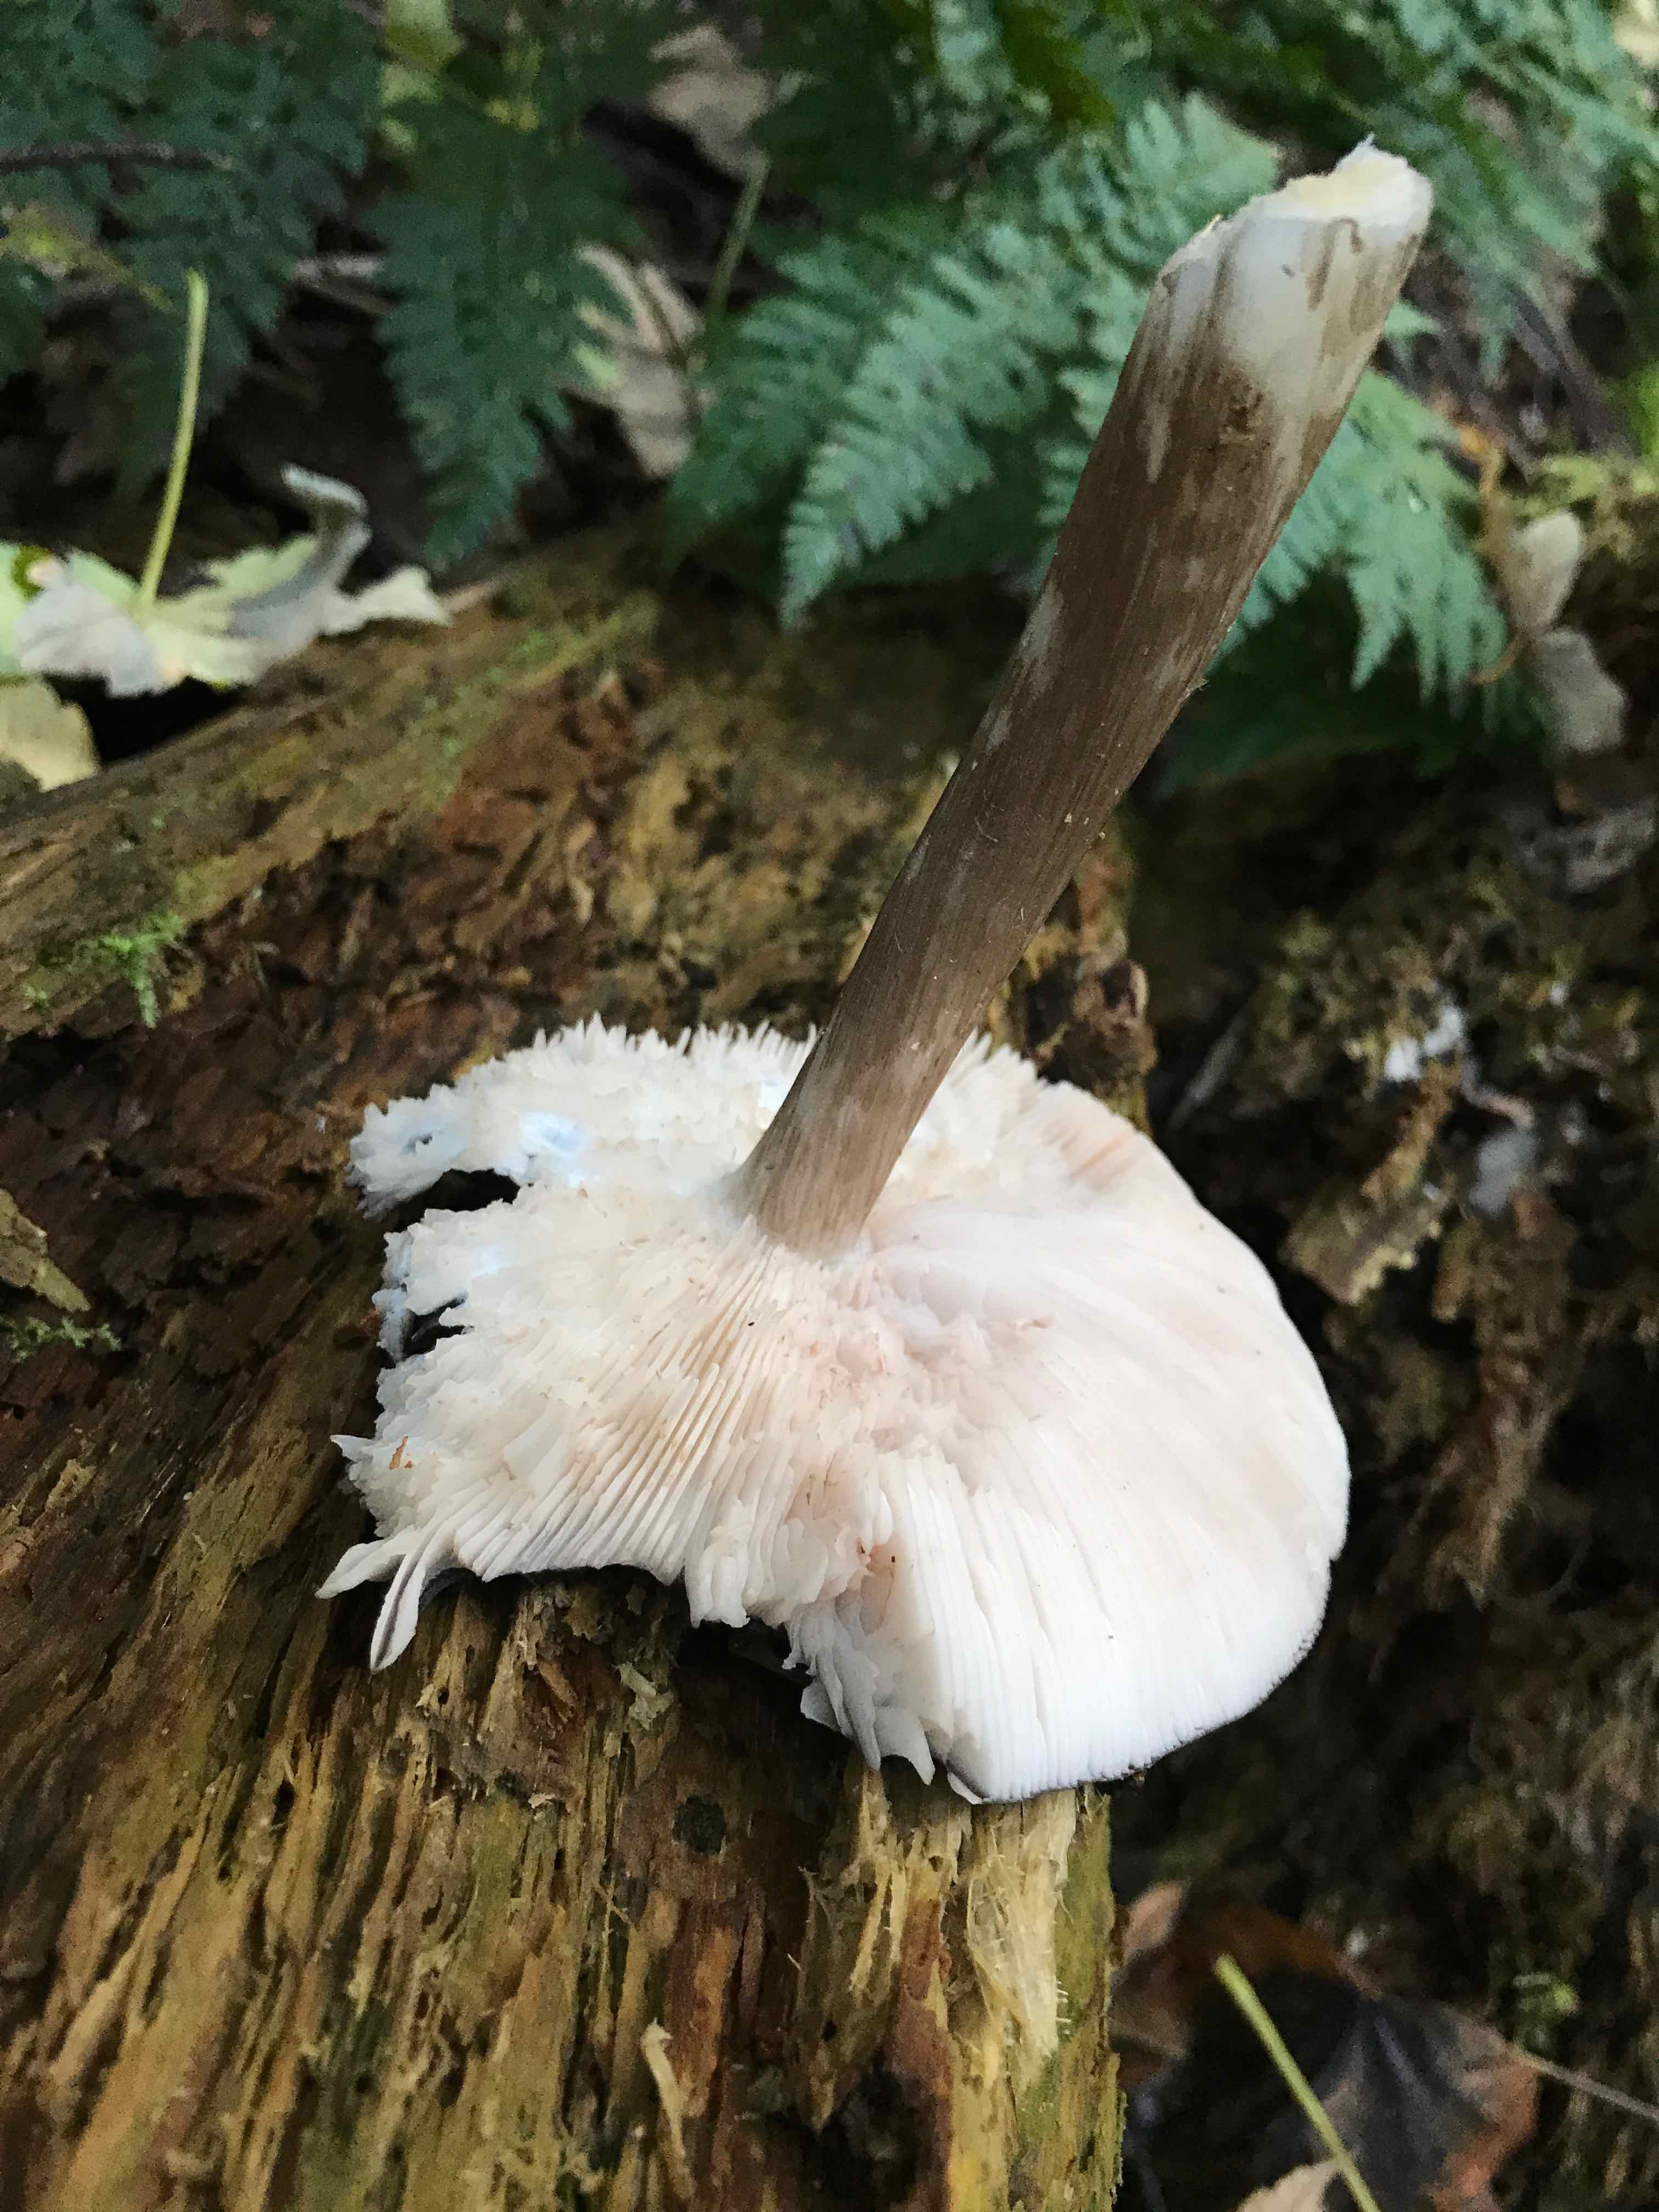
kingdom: Fungi
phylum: Basidiomycota
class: Agaricomycetes
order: Agaricales
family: Pluteaceae
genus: Pluteus
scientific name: Pluteus cervinus
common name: sodfarvet skærmhat
